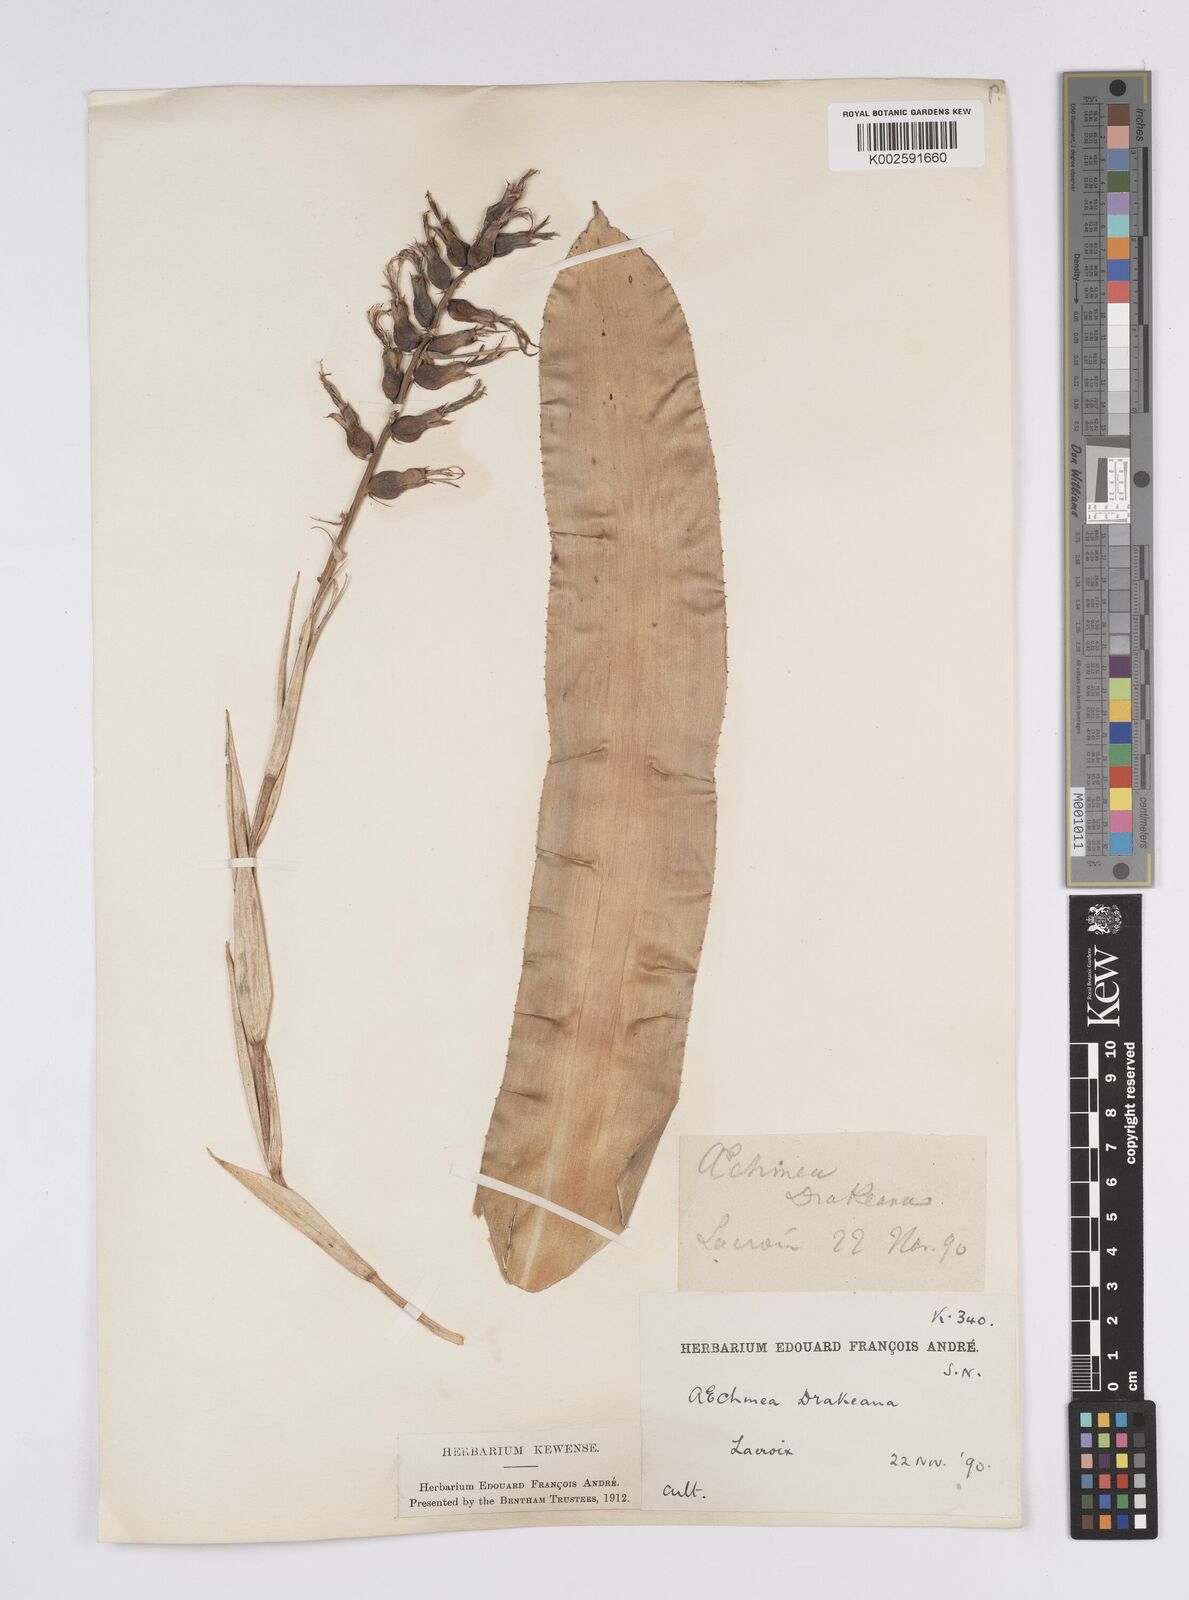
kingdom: Plantae
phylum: Tracheophyta
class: Liliopsida
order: Poales
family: Bromeliaceae
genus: Ronnbergia
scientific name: Ronnbergia drakeana
